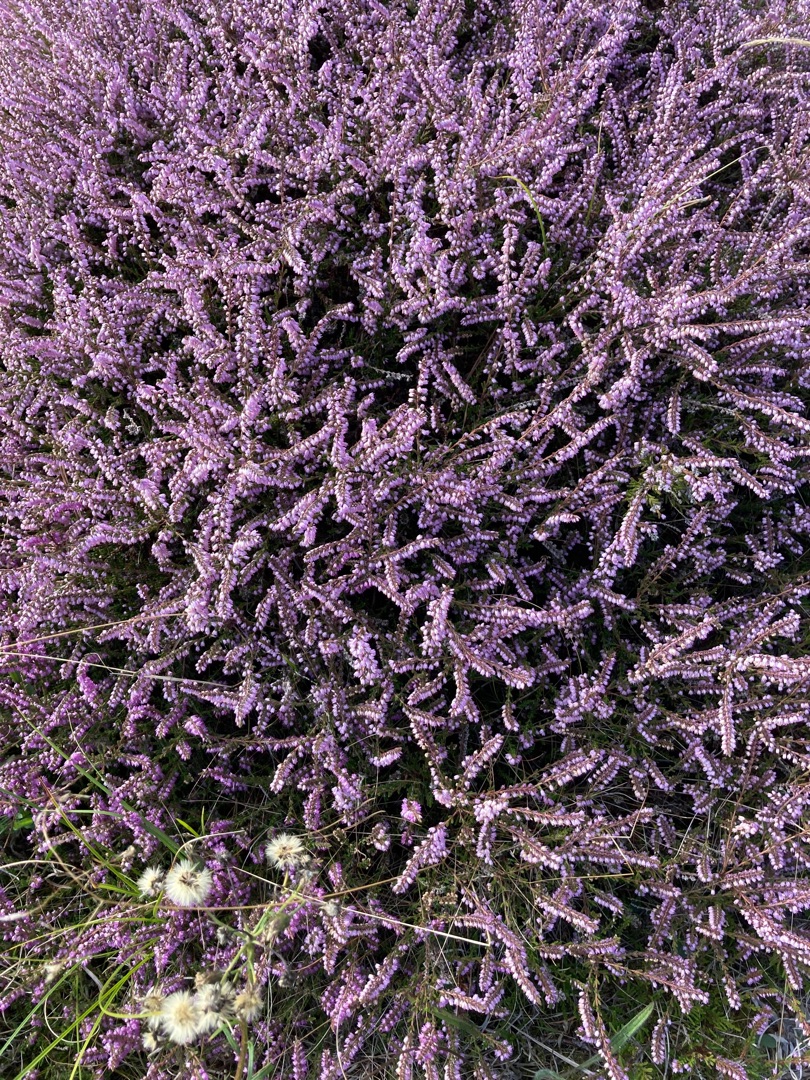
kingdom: Plantae
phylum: Tracheophyta
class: Magnoliopsida
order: Ericales
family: Ericaceae
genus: Calluna
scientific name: Calluna vulgaris
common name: Hedelyng
